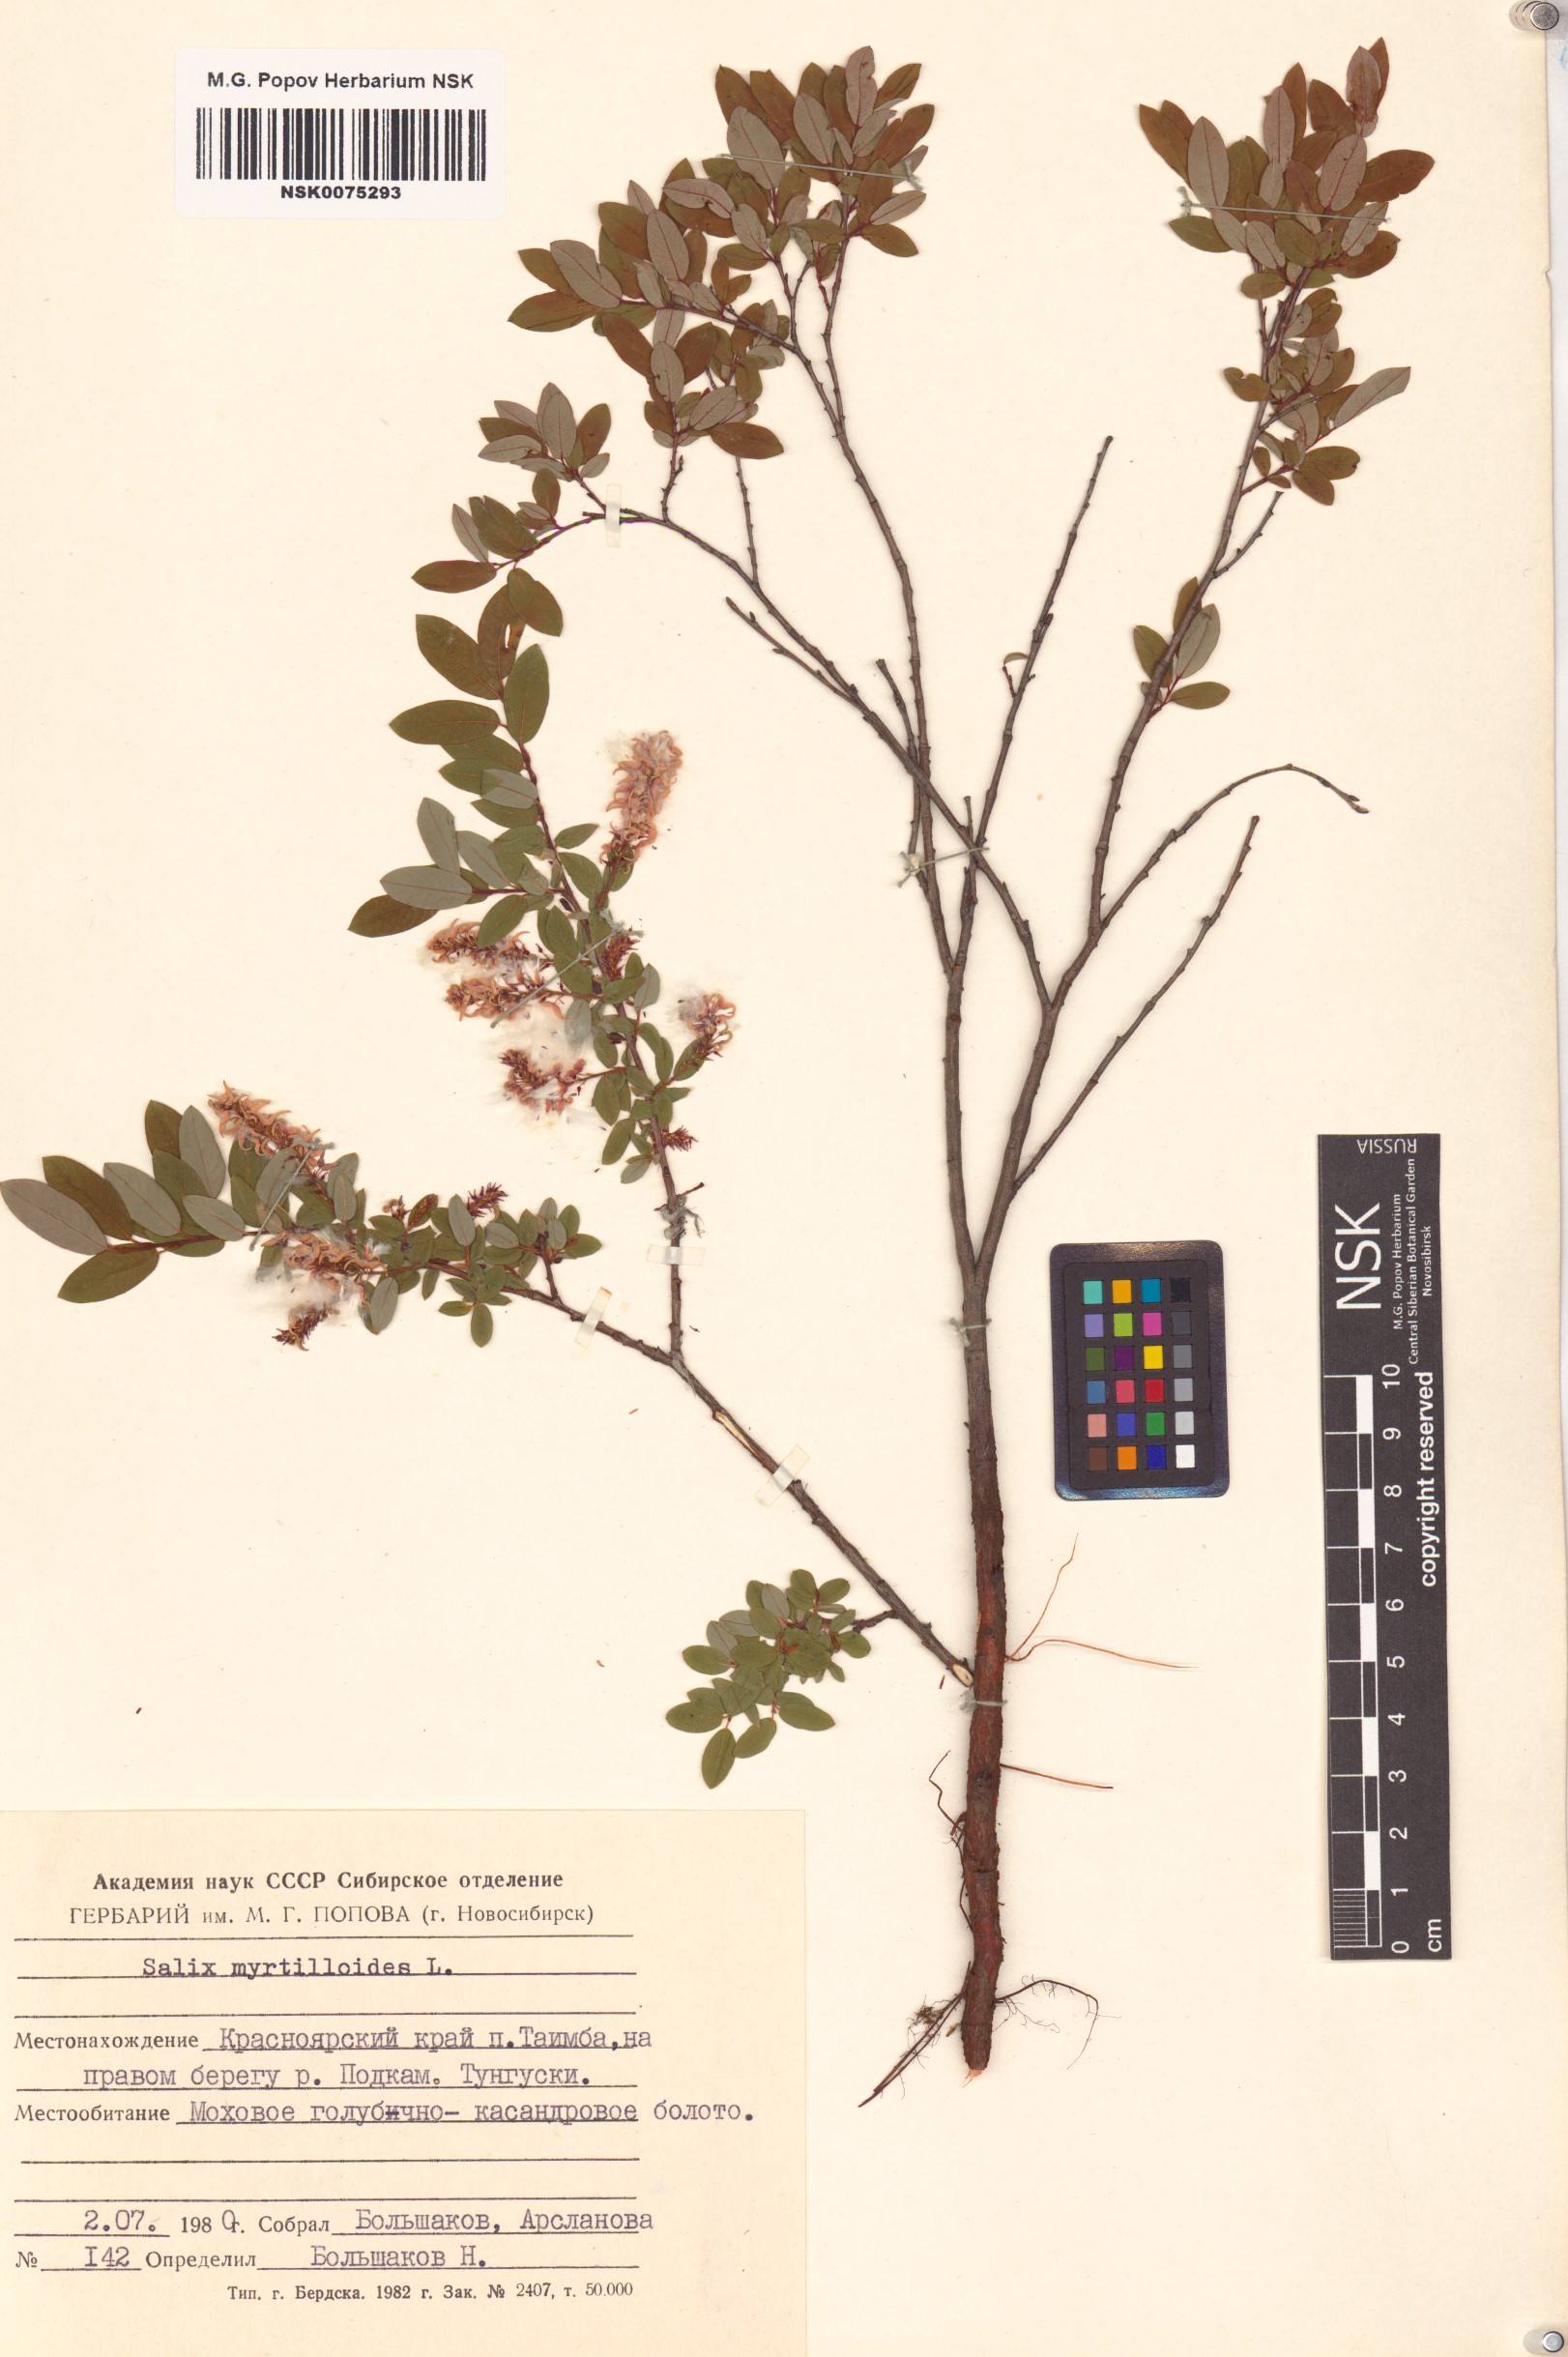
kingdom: Plantae
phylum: Tracheophyta
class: Magnoliopsida
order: Malpighiales
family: Salicaceae
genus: Salix
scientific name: Salix myrtilloides
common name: Myrtle-leaved willow
